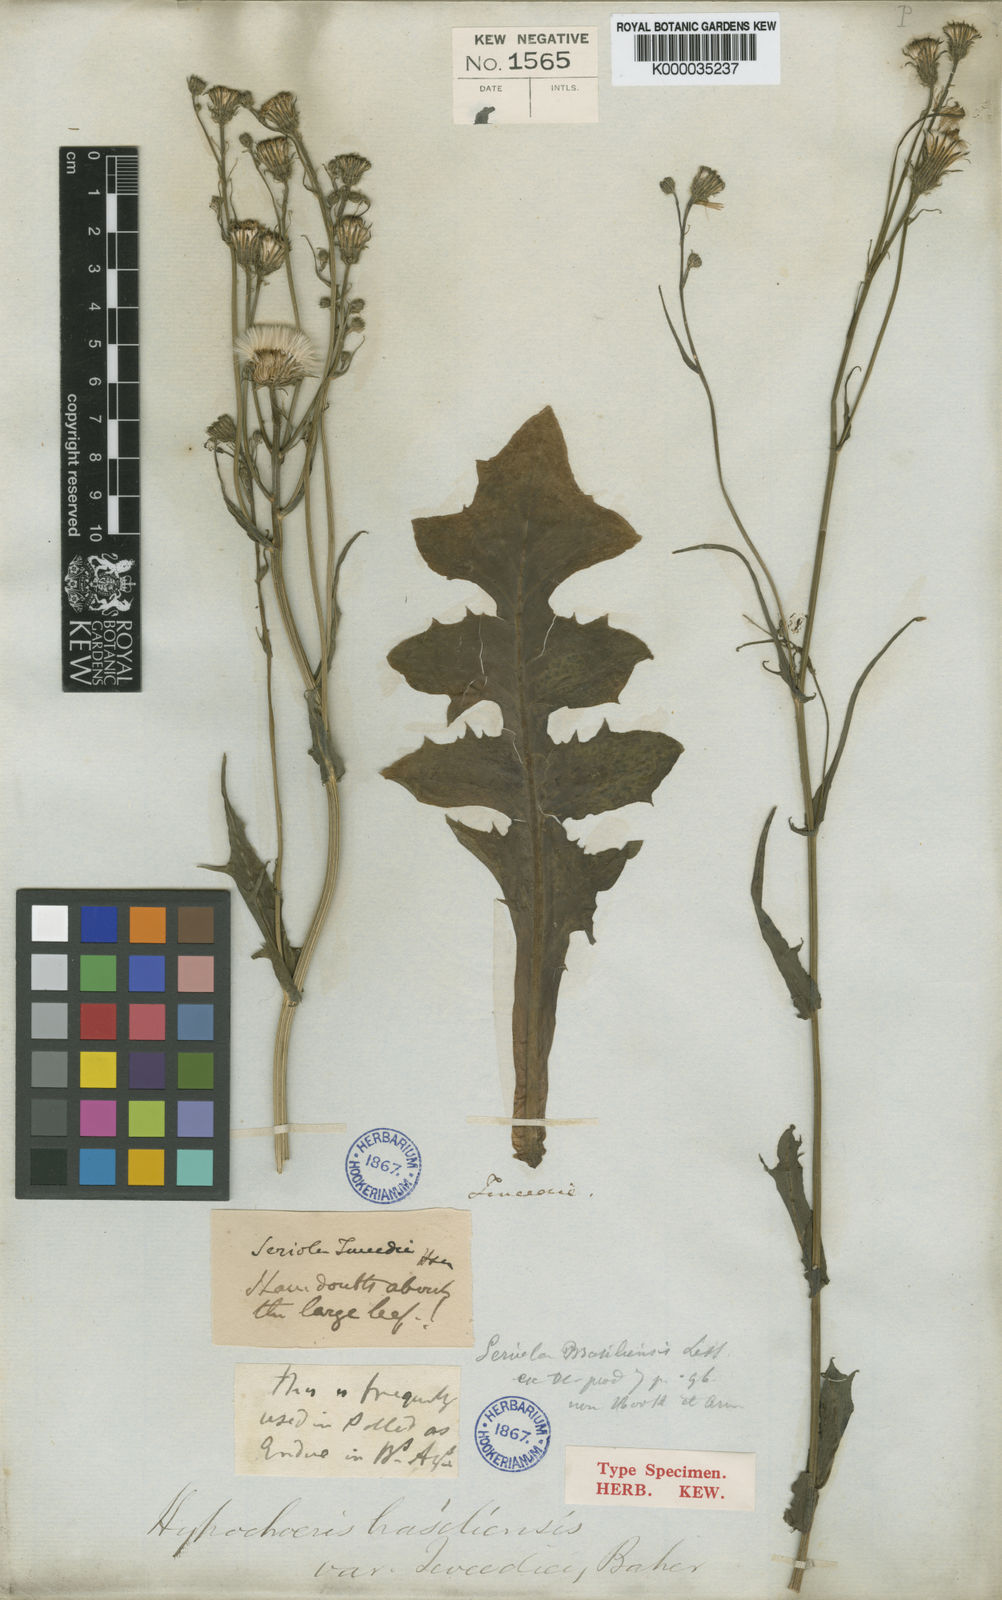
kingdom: Plantae
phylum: Tracheophyta
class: Magnoliopsida
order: Asterales
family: Asteraceae
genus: Hypochaeris
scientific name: Hypochaeris chillensis
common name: Brazilian cat's ear
